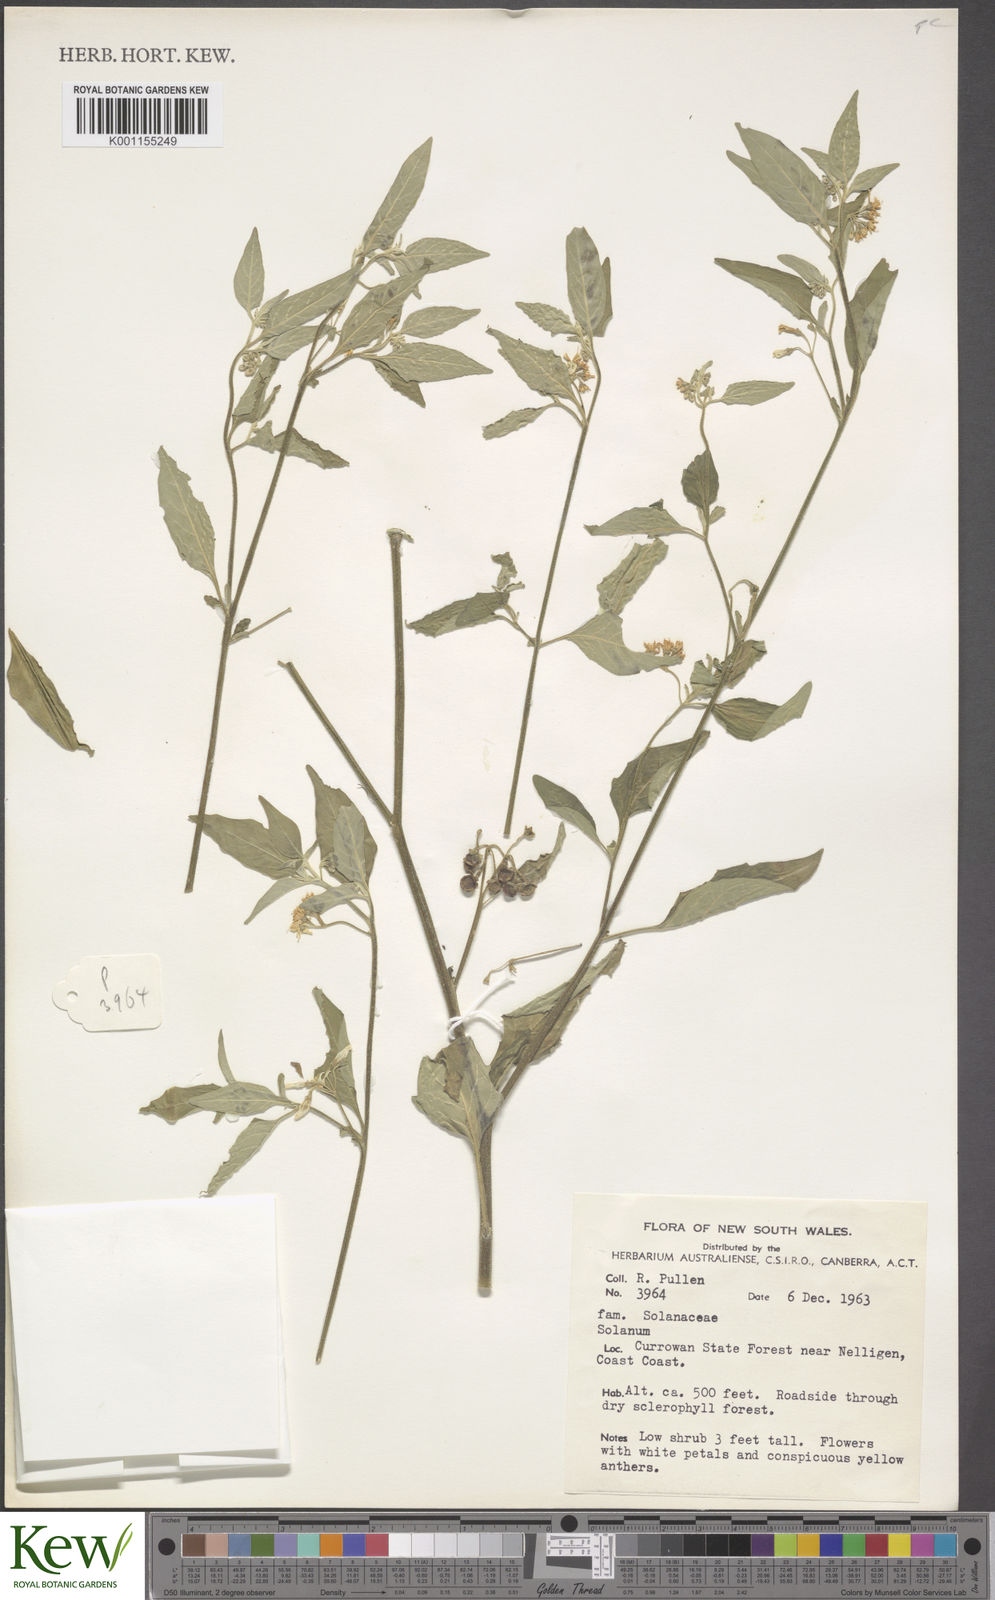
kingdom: Plantae
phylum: Tracheophyta
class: Magnoliopsida
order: Solanales
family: Solanaceae
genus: Solanum
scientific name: Solanum
